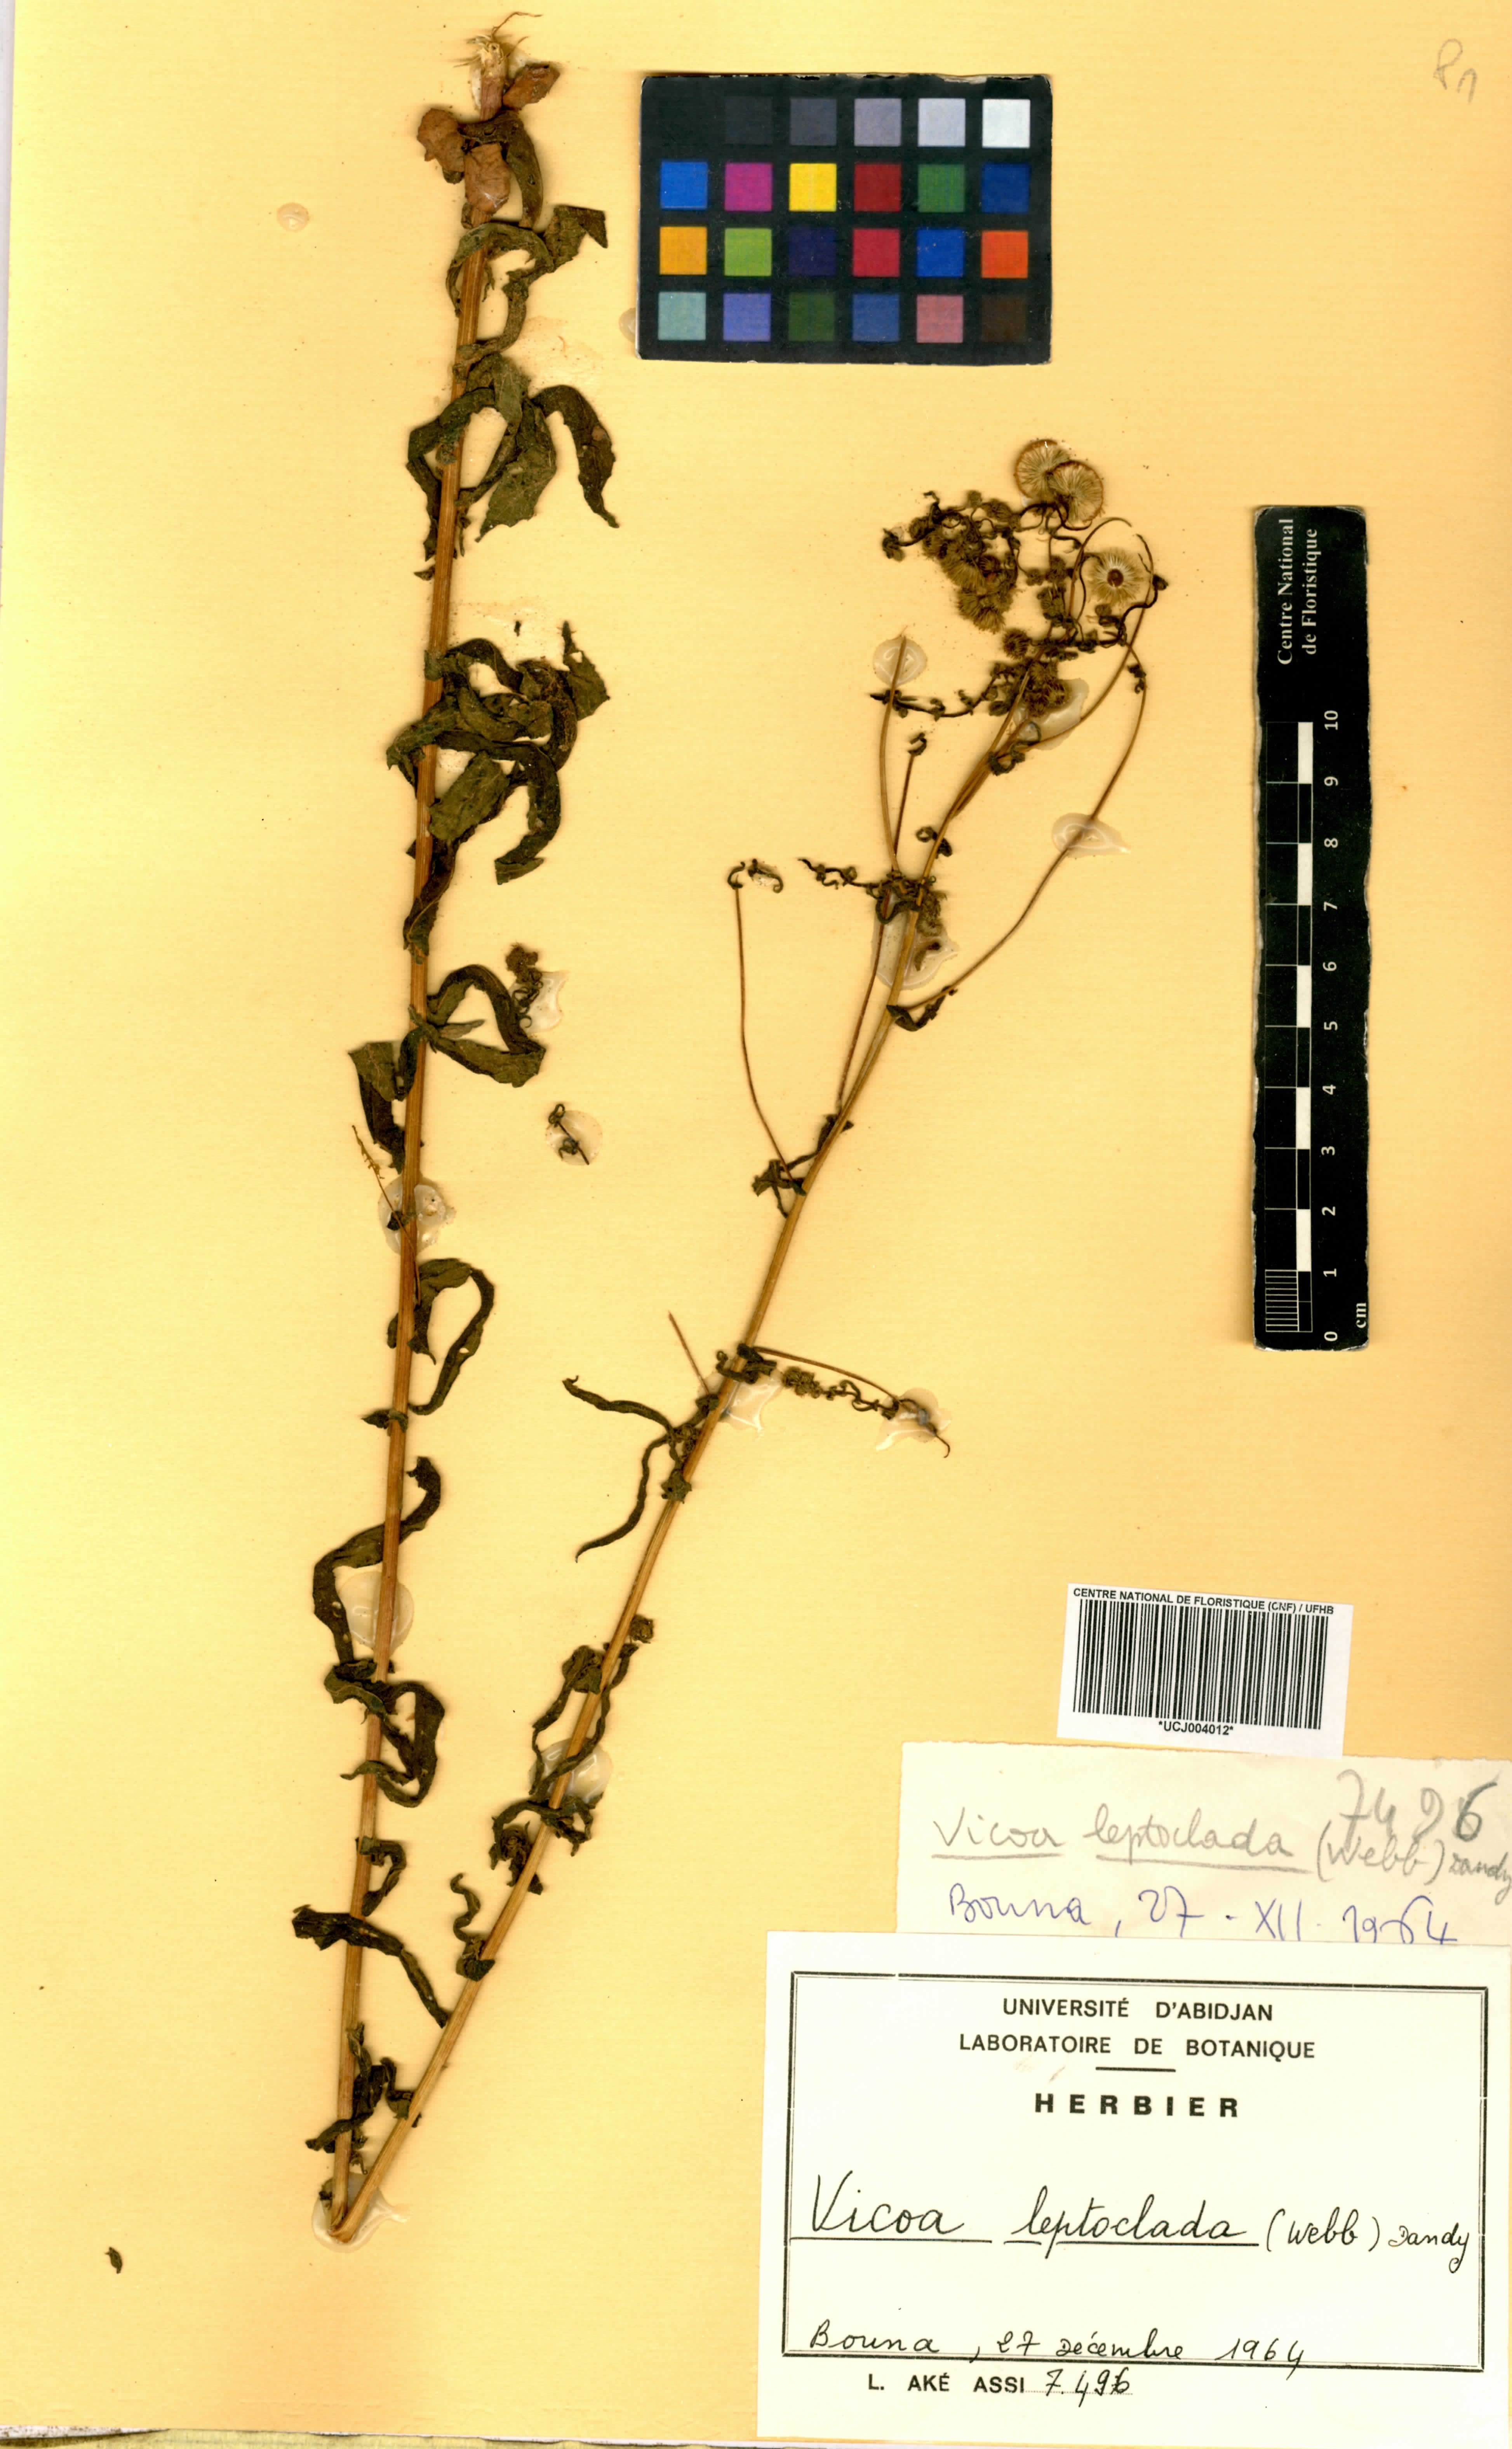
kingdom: Plantae
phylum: Tracheophyta
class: Magnoliopsida
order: Asterales
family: Asteraceae
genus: Vicoa
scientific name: Vicoa indica
